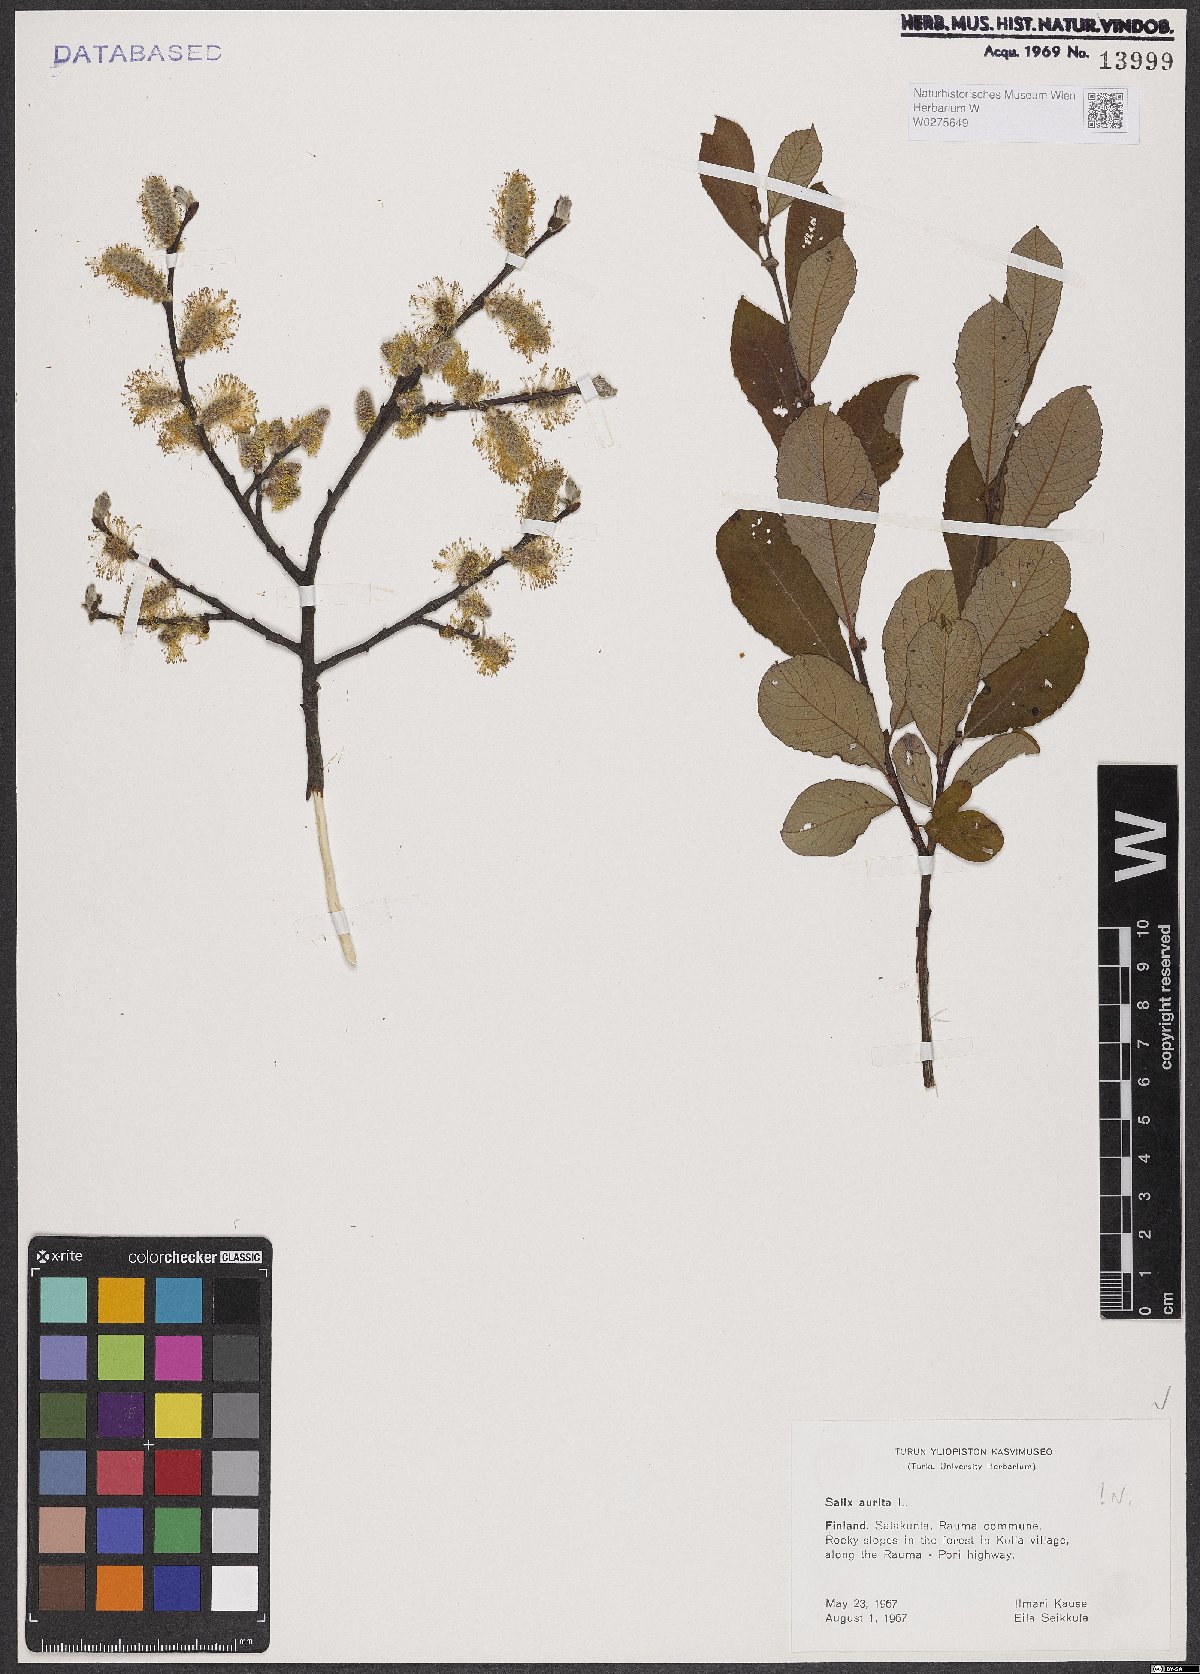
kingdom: Plantae
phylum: Tracheophyta
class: Magnoliopsida
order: Malpighiales
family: Salicaceae
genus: Salix
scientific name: Salix aurita
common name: Eared willow
